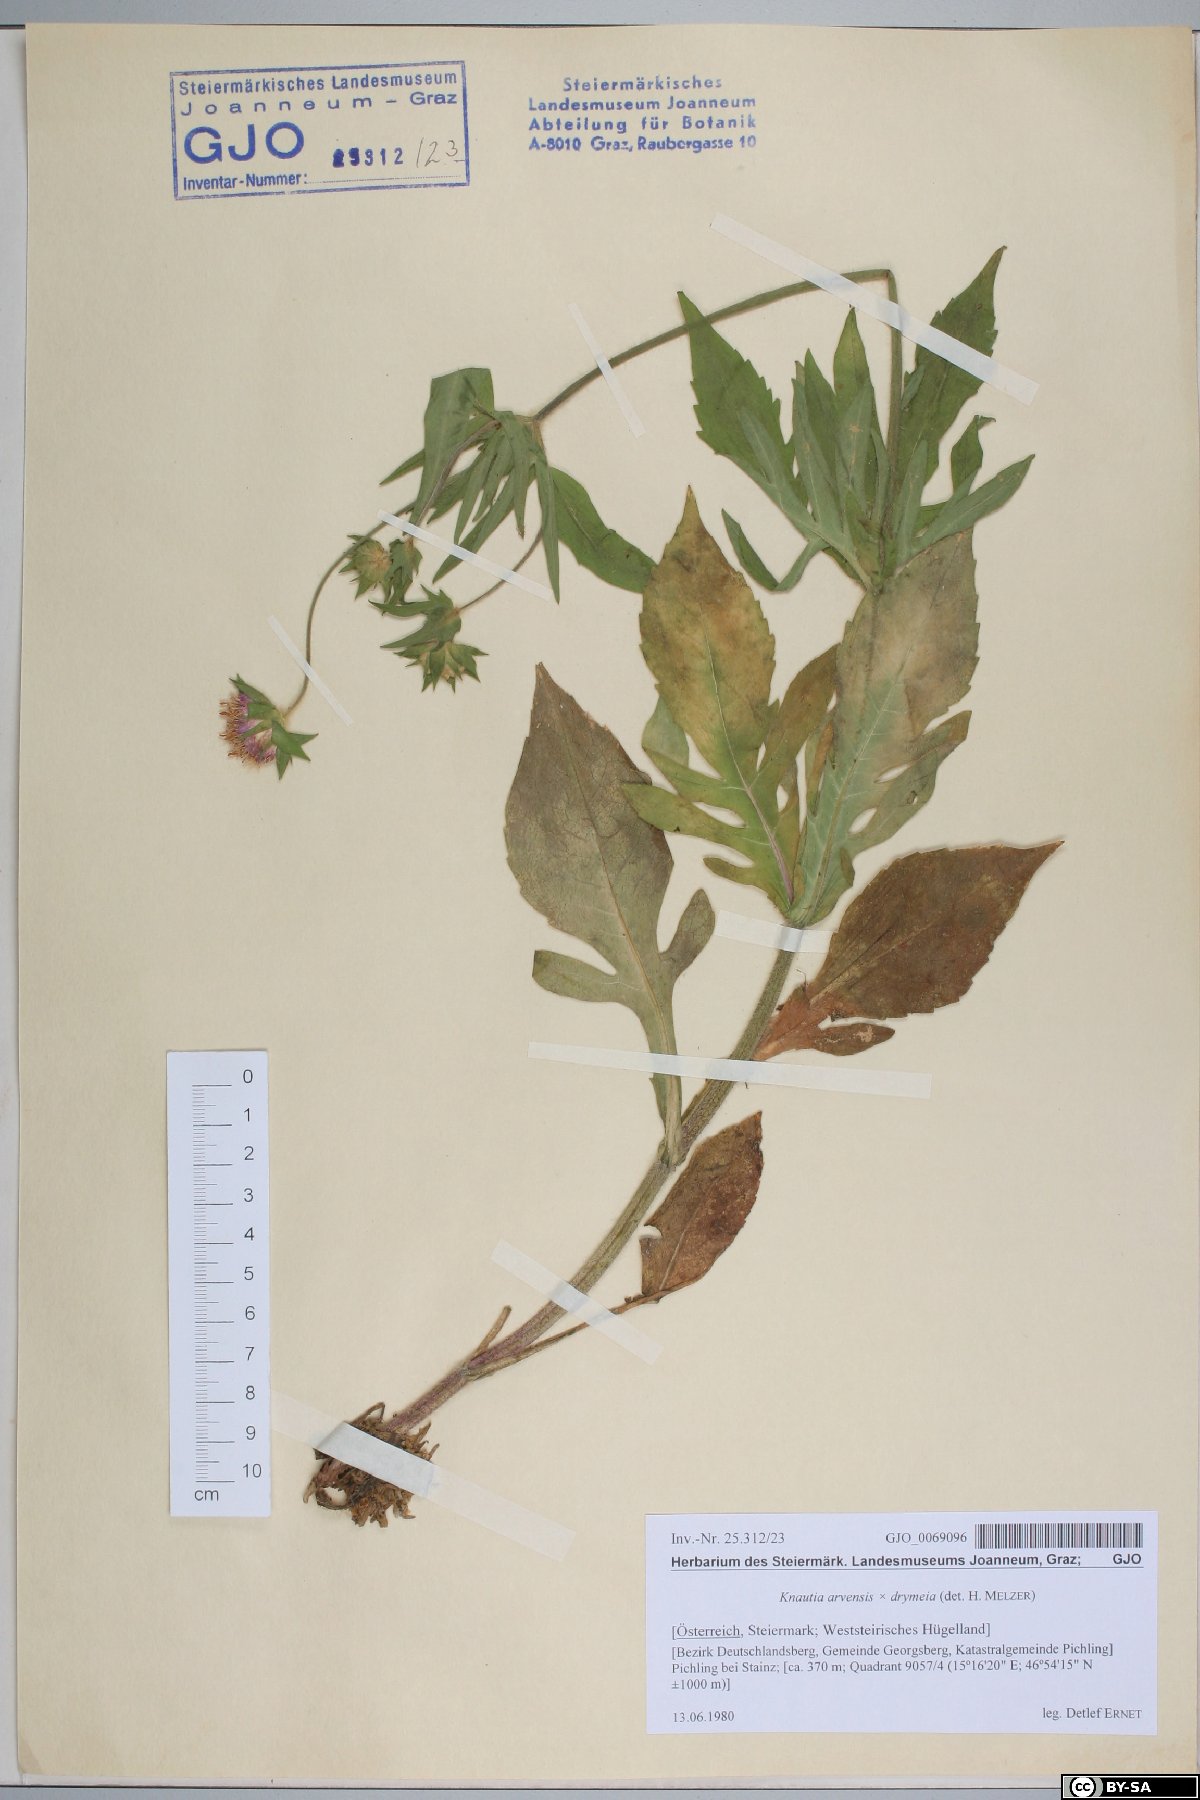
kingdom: Plantae
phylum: Tracheophyta
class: Magnoliopsida
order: Dipsacales
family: Dipsacaceae
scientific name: Dipsacaceae
